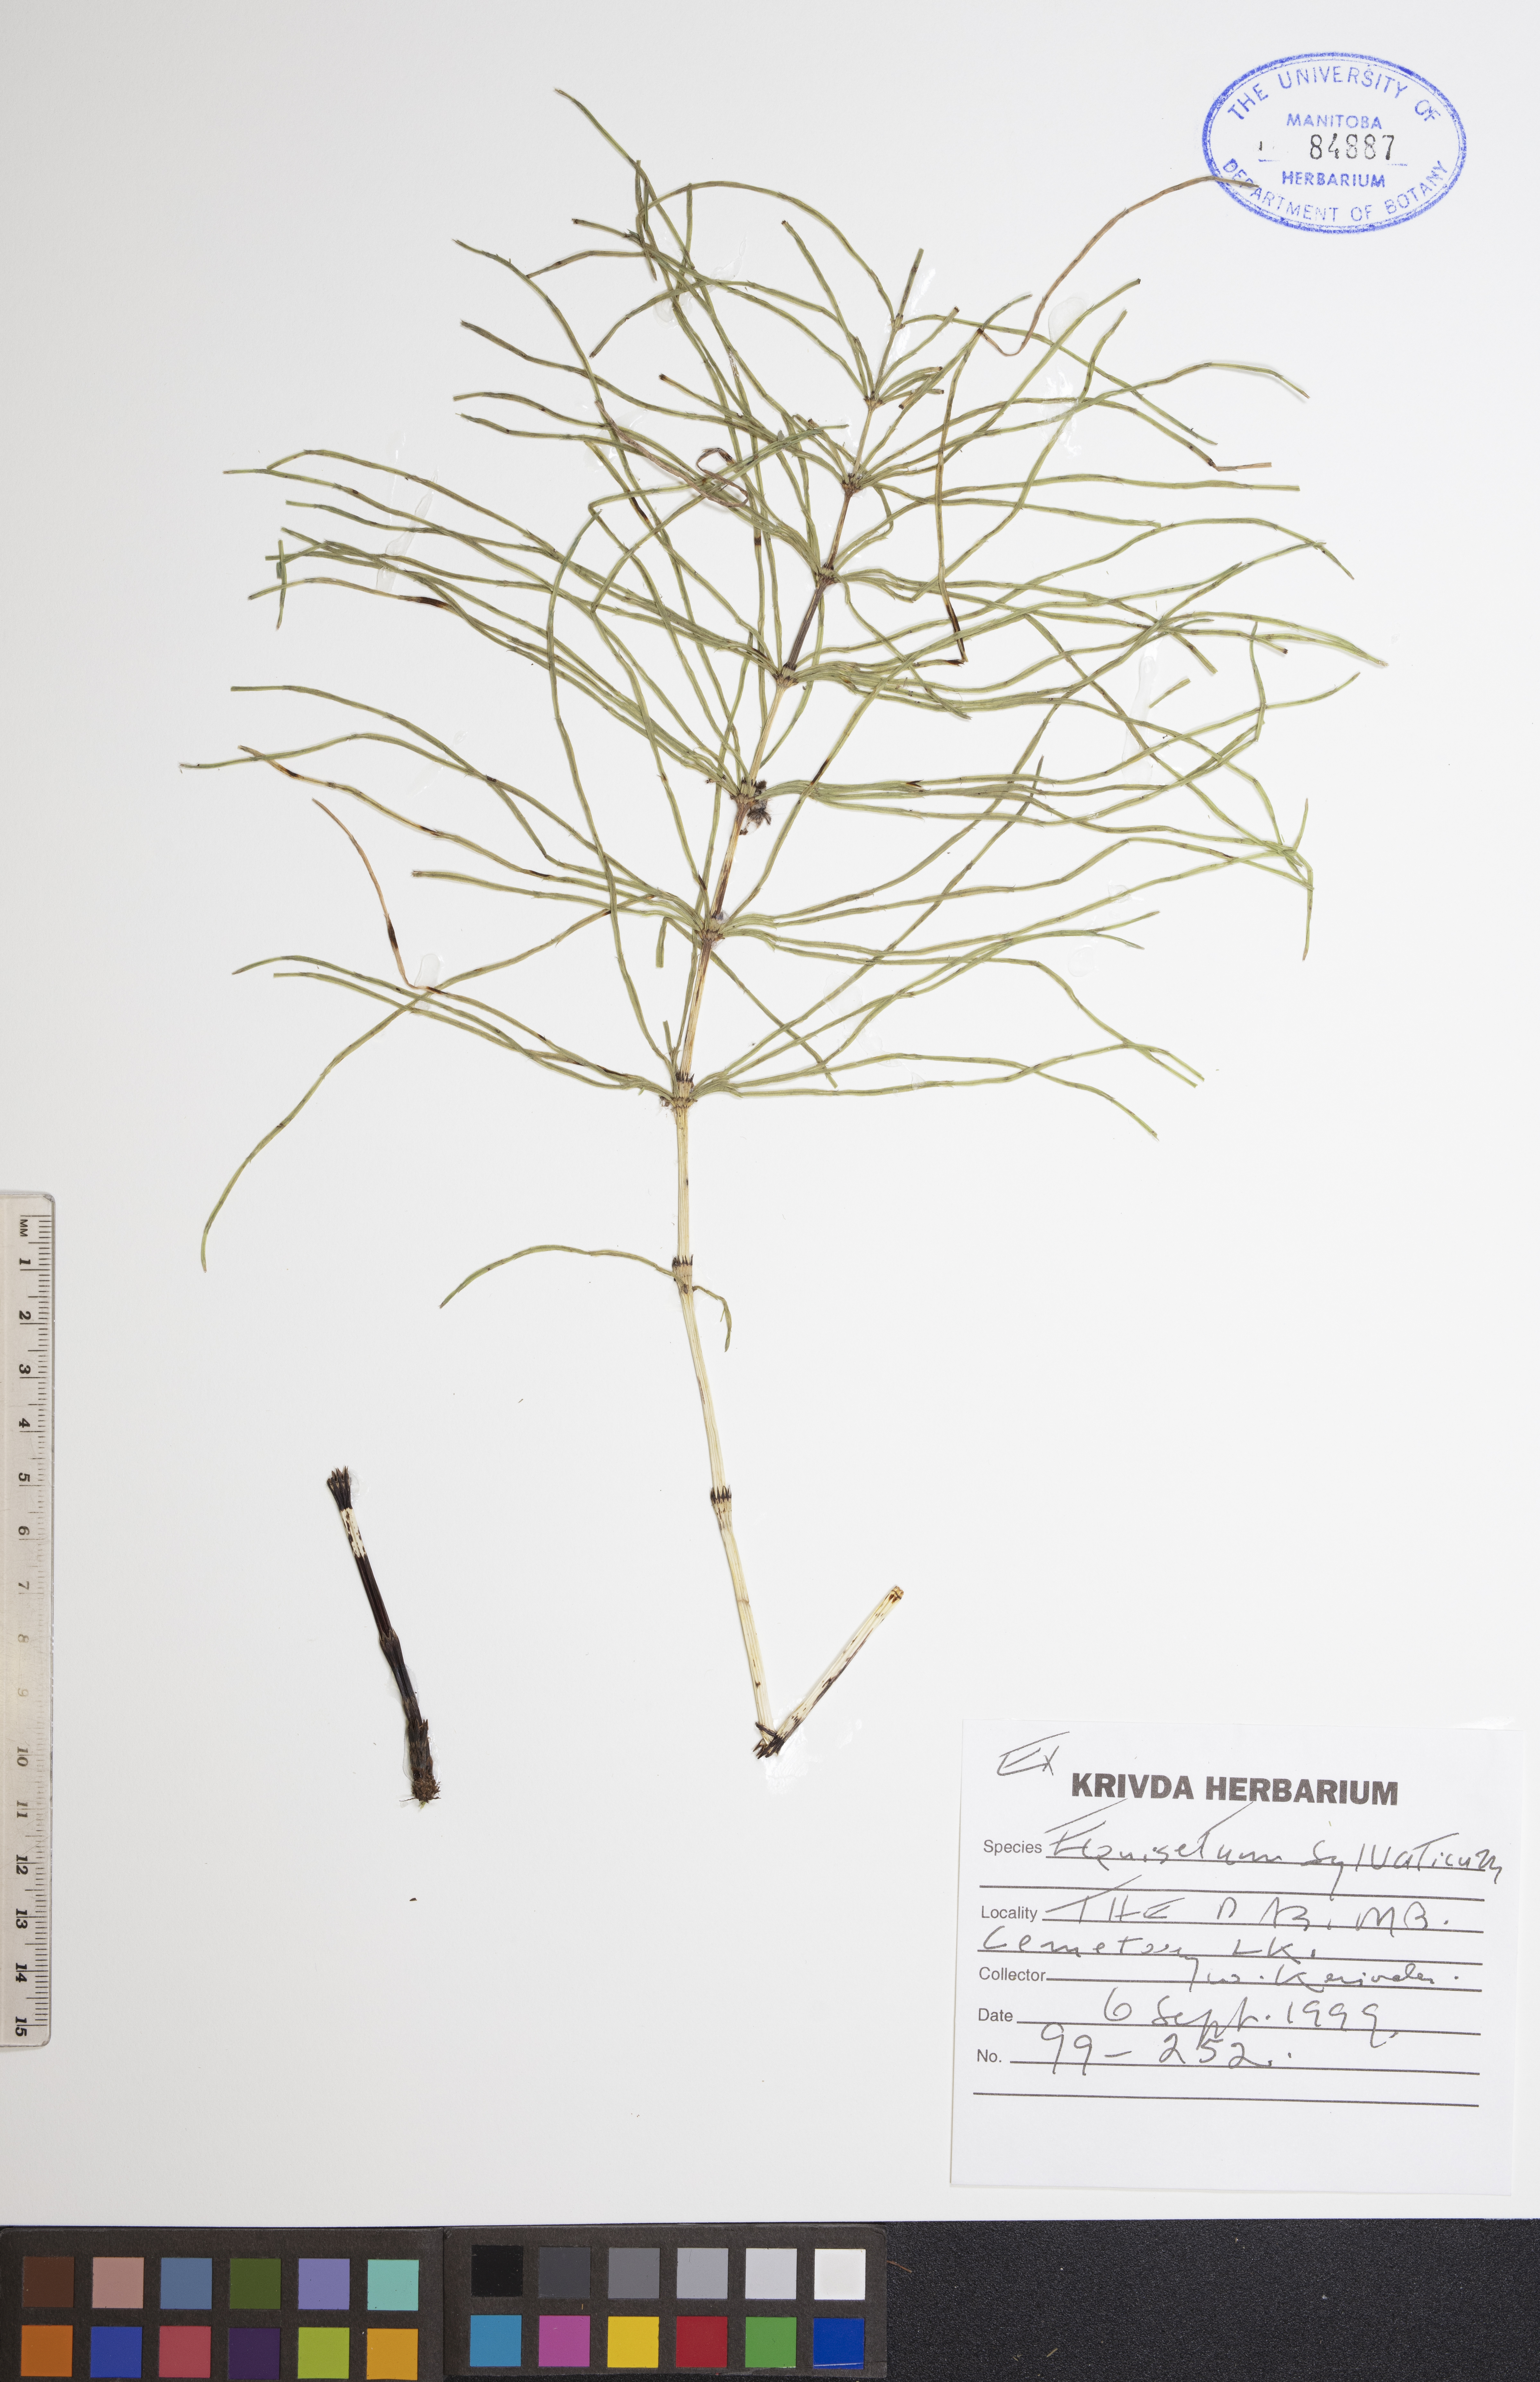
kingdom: Plantae
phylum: Tracheophyta
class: Polypodiopsida
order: Equisetales
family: Equisetaceae
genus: Equisetum
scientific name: Equisetum sylvaticum
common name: Wood horsetail
